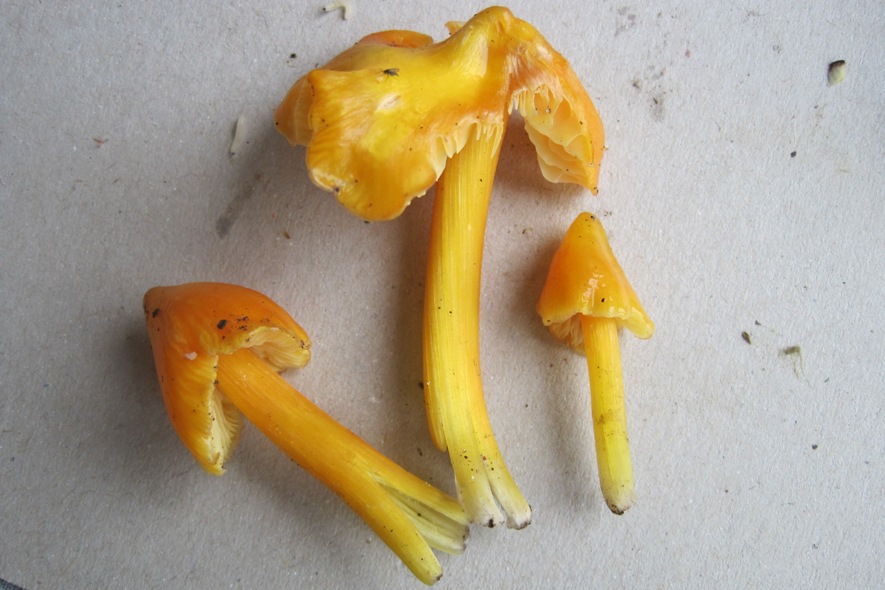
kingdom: Fungi
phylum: Basidiomycota
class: Agaricomycetes
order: Agaricales
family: Hygrophoraceae
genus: Hygrocybe
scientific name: Hygrocybe acutoconica
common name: spidspuklet vokshat
